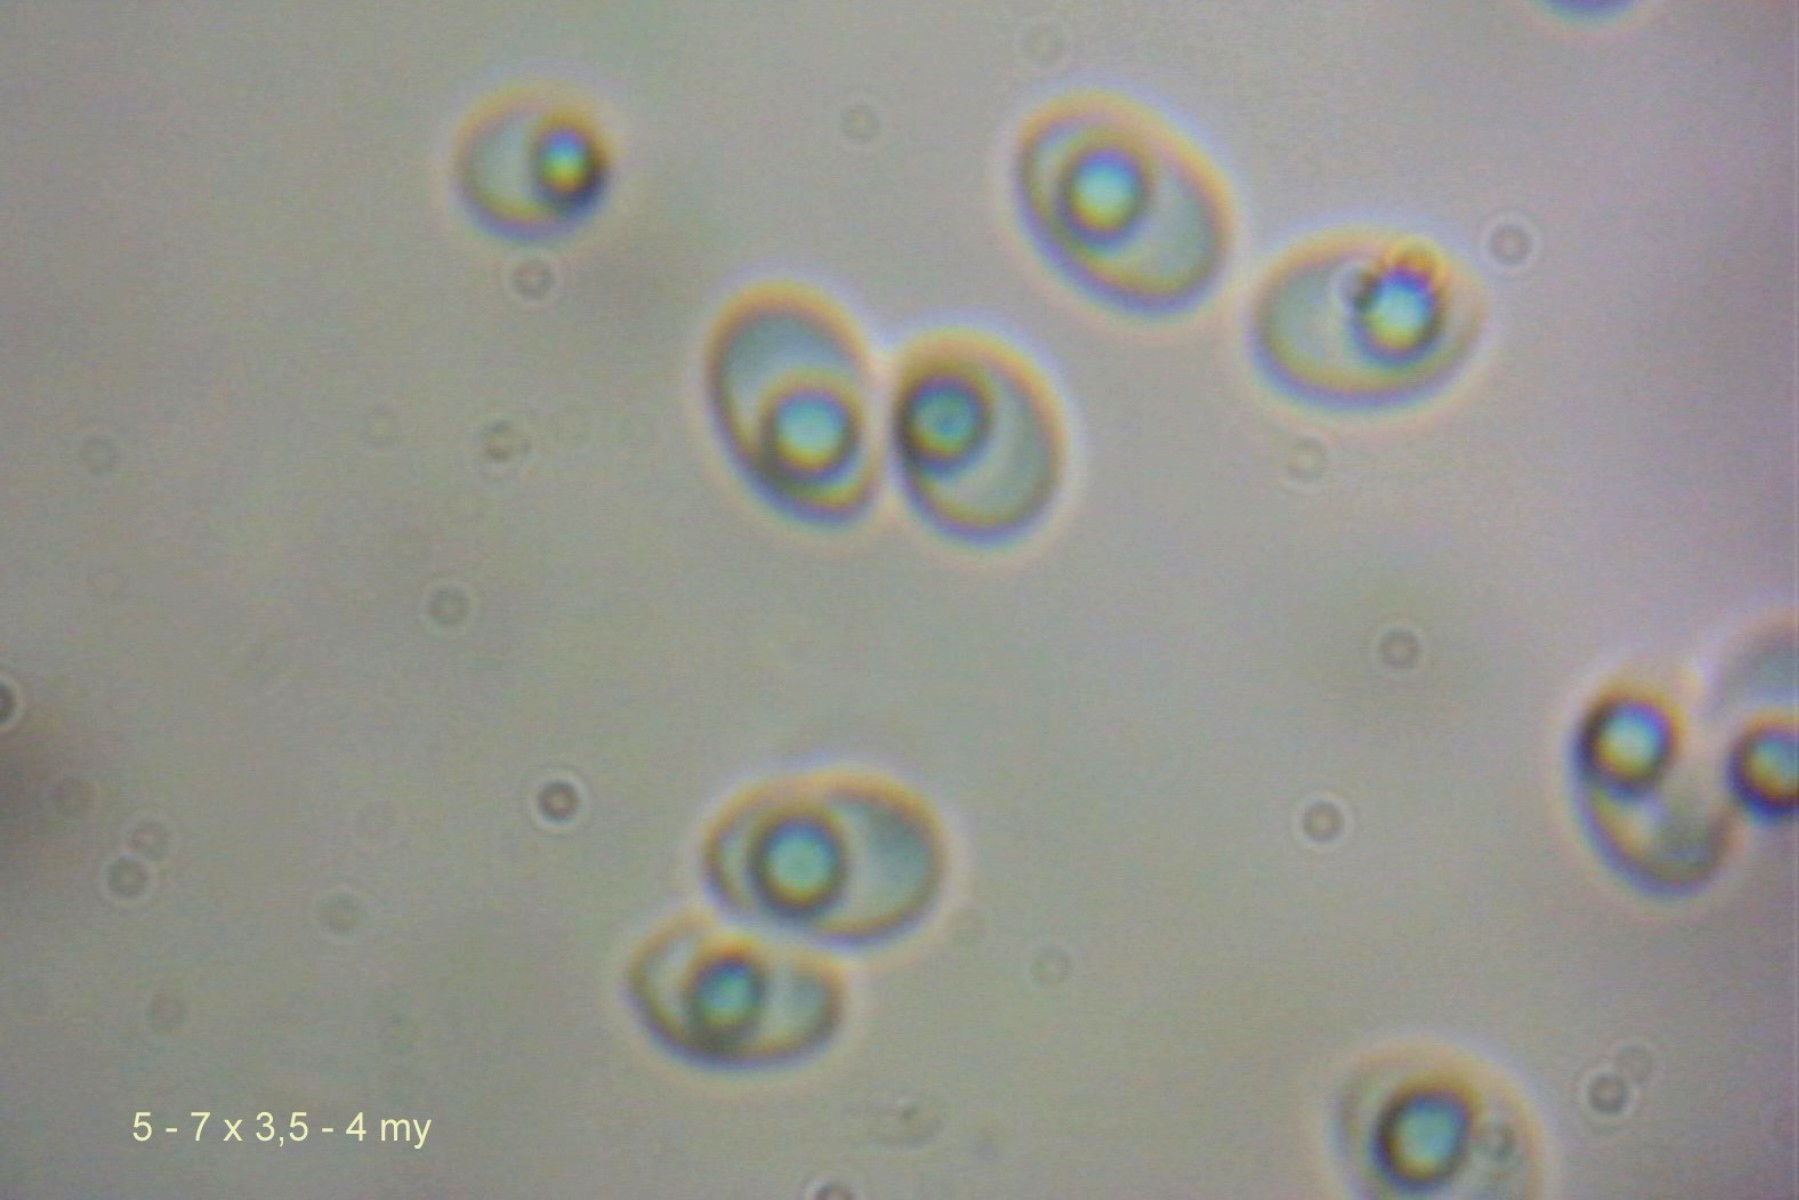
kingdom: Fungi
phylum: Basidiomycota
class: Agaricomycetes
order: Hymenochaetales
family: Schizoporaceae
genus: Schizopora
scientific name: Schizopora paradoxa
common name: hvid tandsvamp
